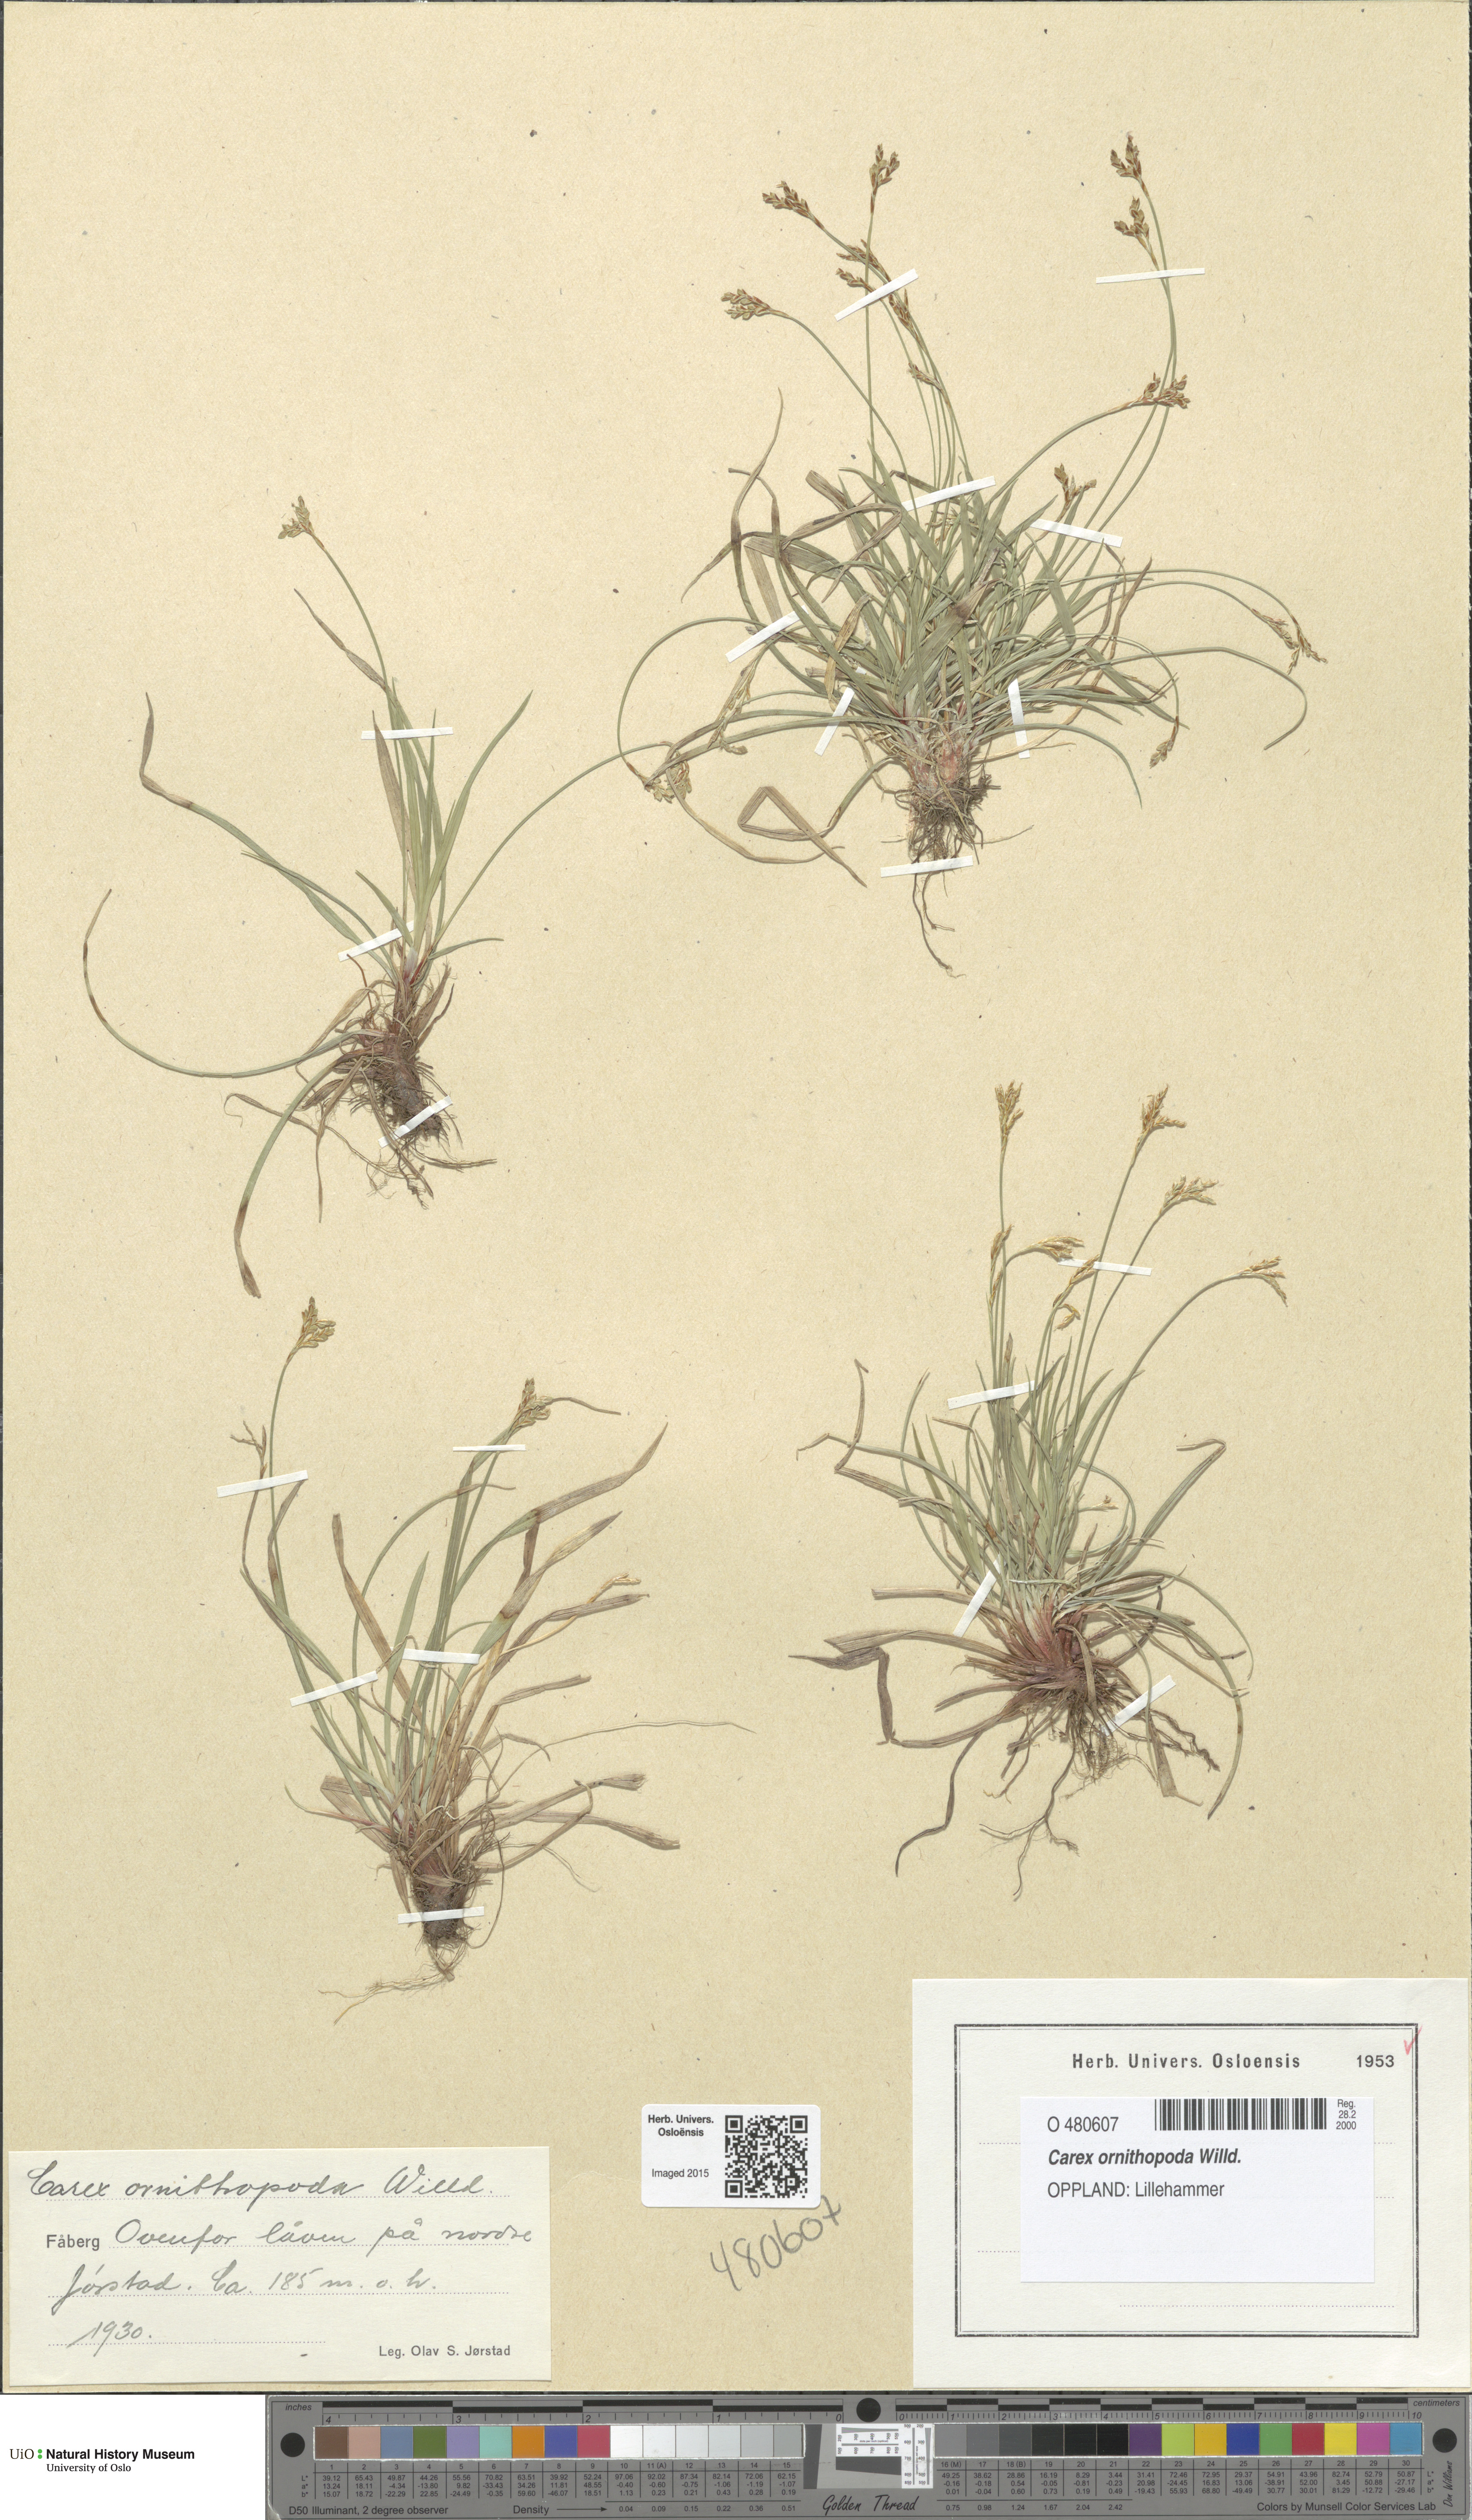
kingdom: Plantae
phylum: Tracheophyta
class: Liliopsida
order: Poales
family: Cyperaceae
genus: Carex
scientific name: Carex ornithopoda
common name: Bird's-foot sedge
